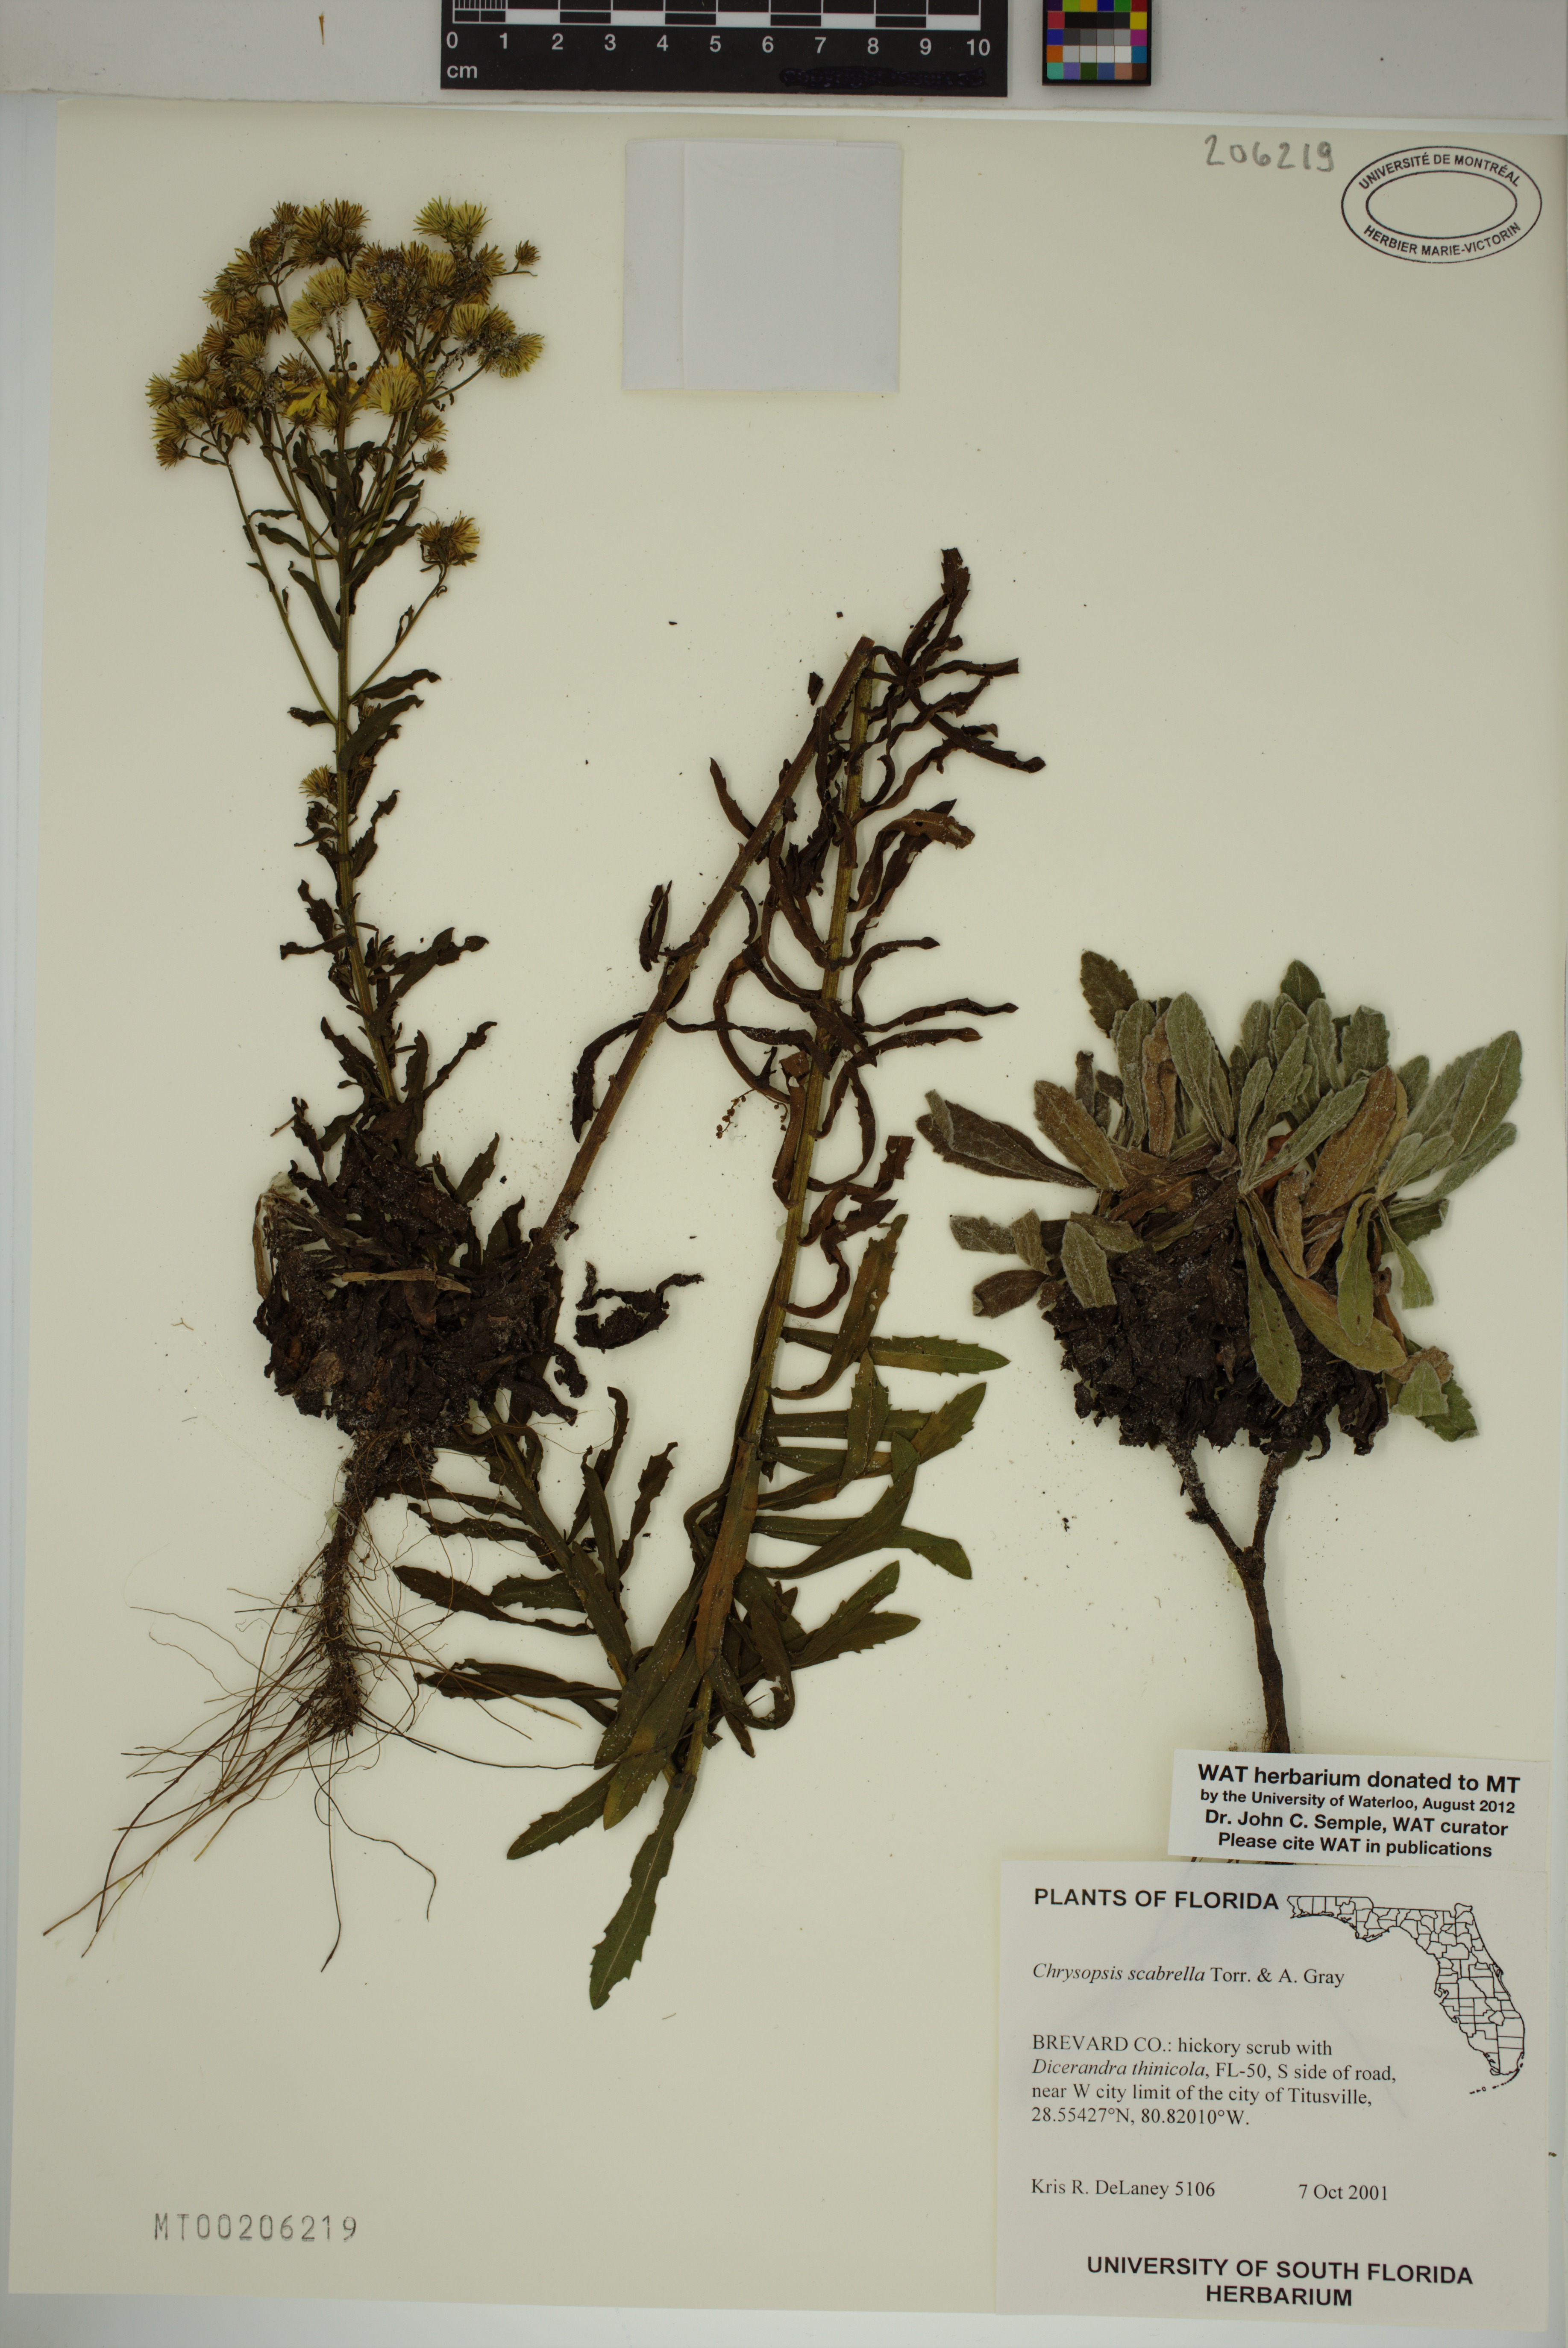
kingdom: Plantae
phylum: Tracheophyta
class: Magnoliopsida
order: Asterales
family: Asteraceae
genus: Chrysopsis
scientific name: Chrysopsis scabrella
